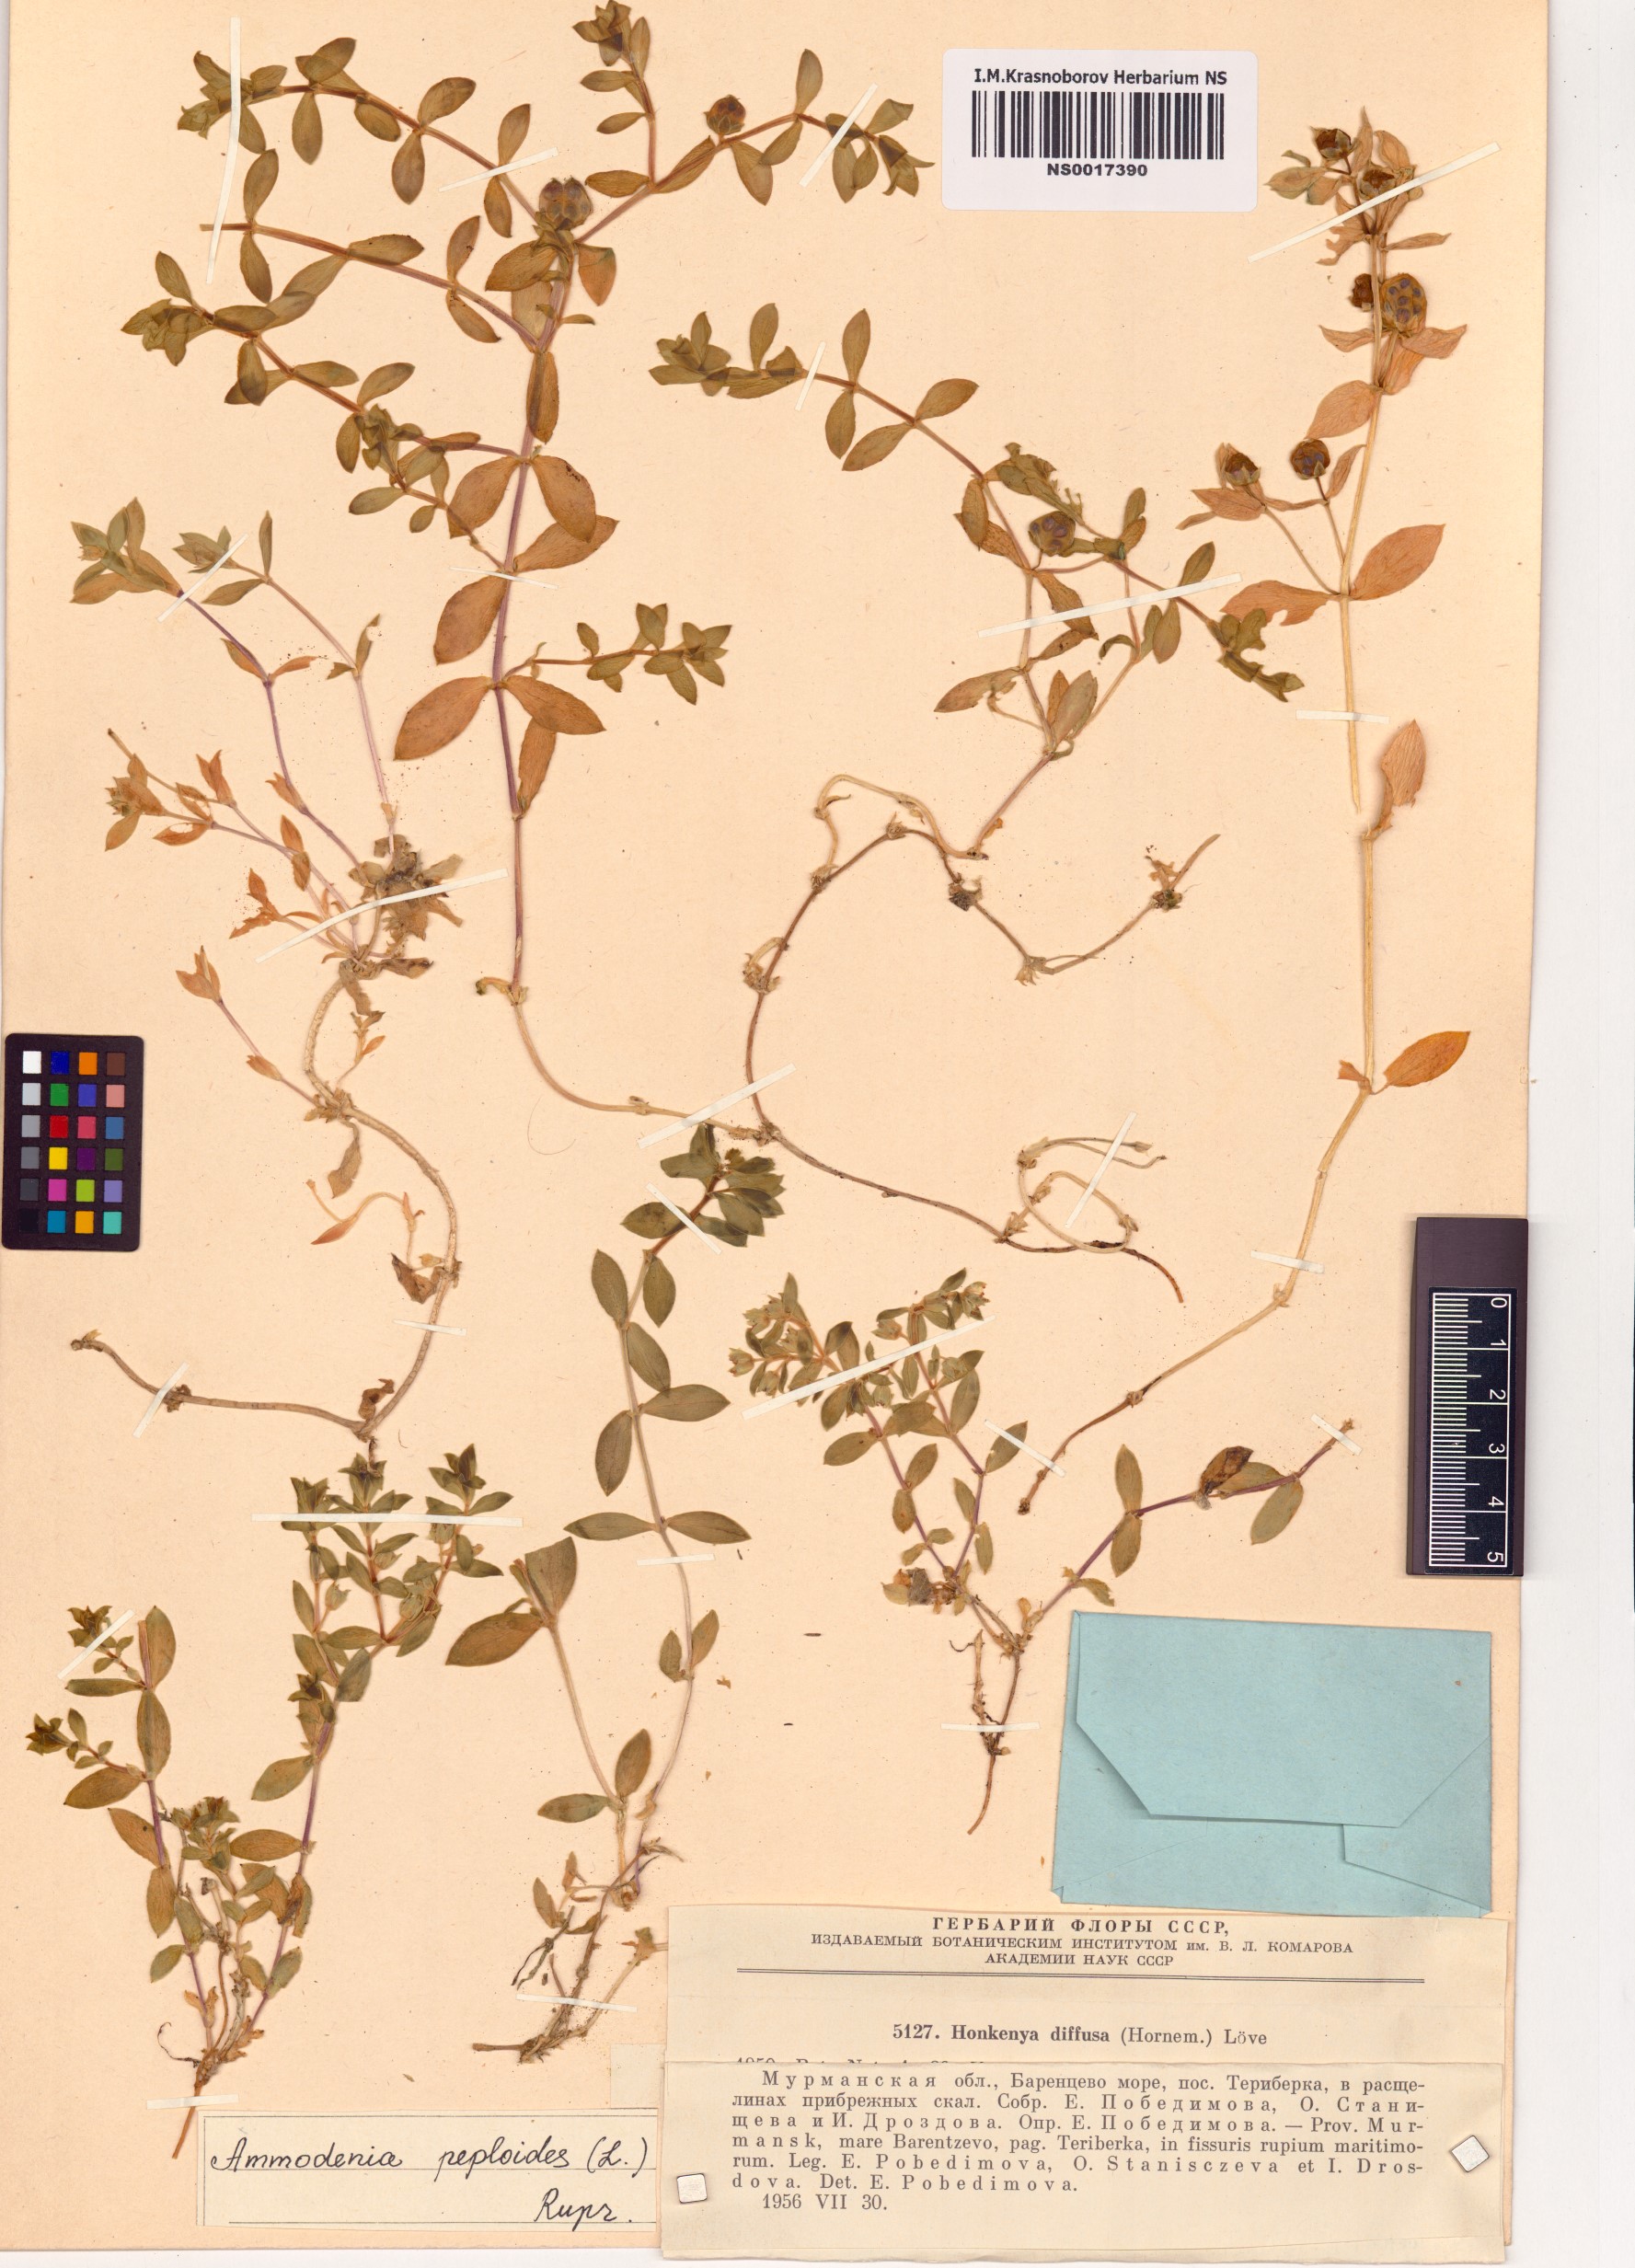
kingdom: Plantae
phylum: Tracheophyta
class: Magnoliopsida
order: Caryophyllales
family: Caryophyllaceae
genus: Honckenya
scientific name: Honckenya peploides
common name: Sea sandwort
